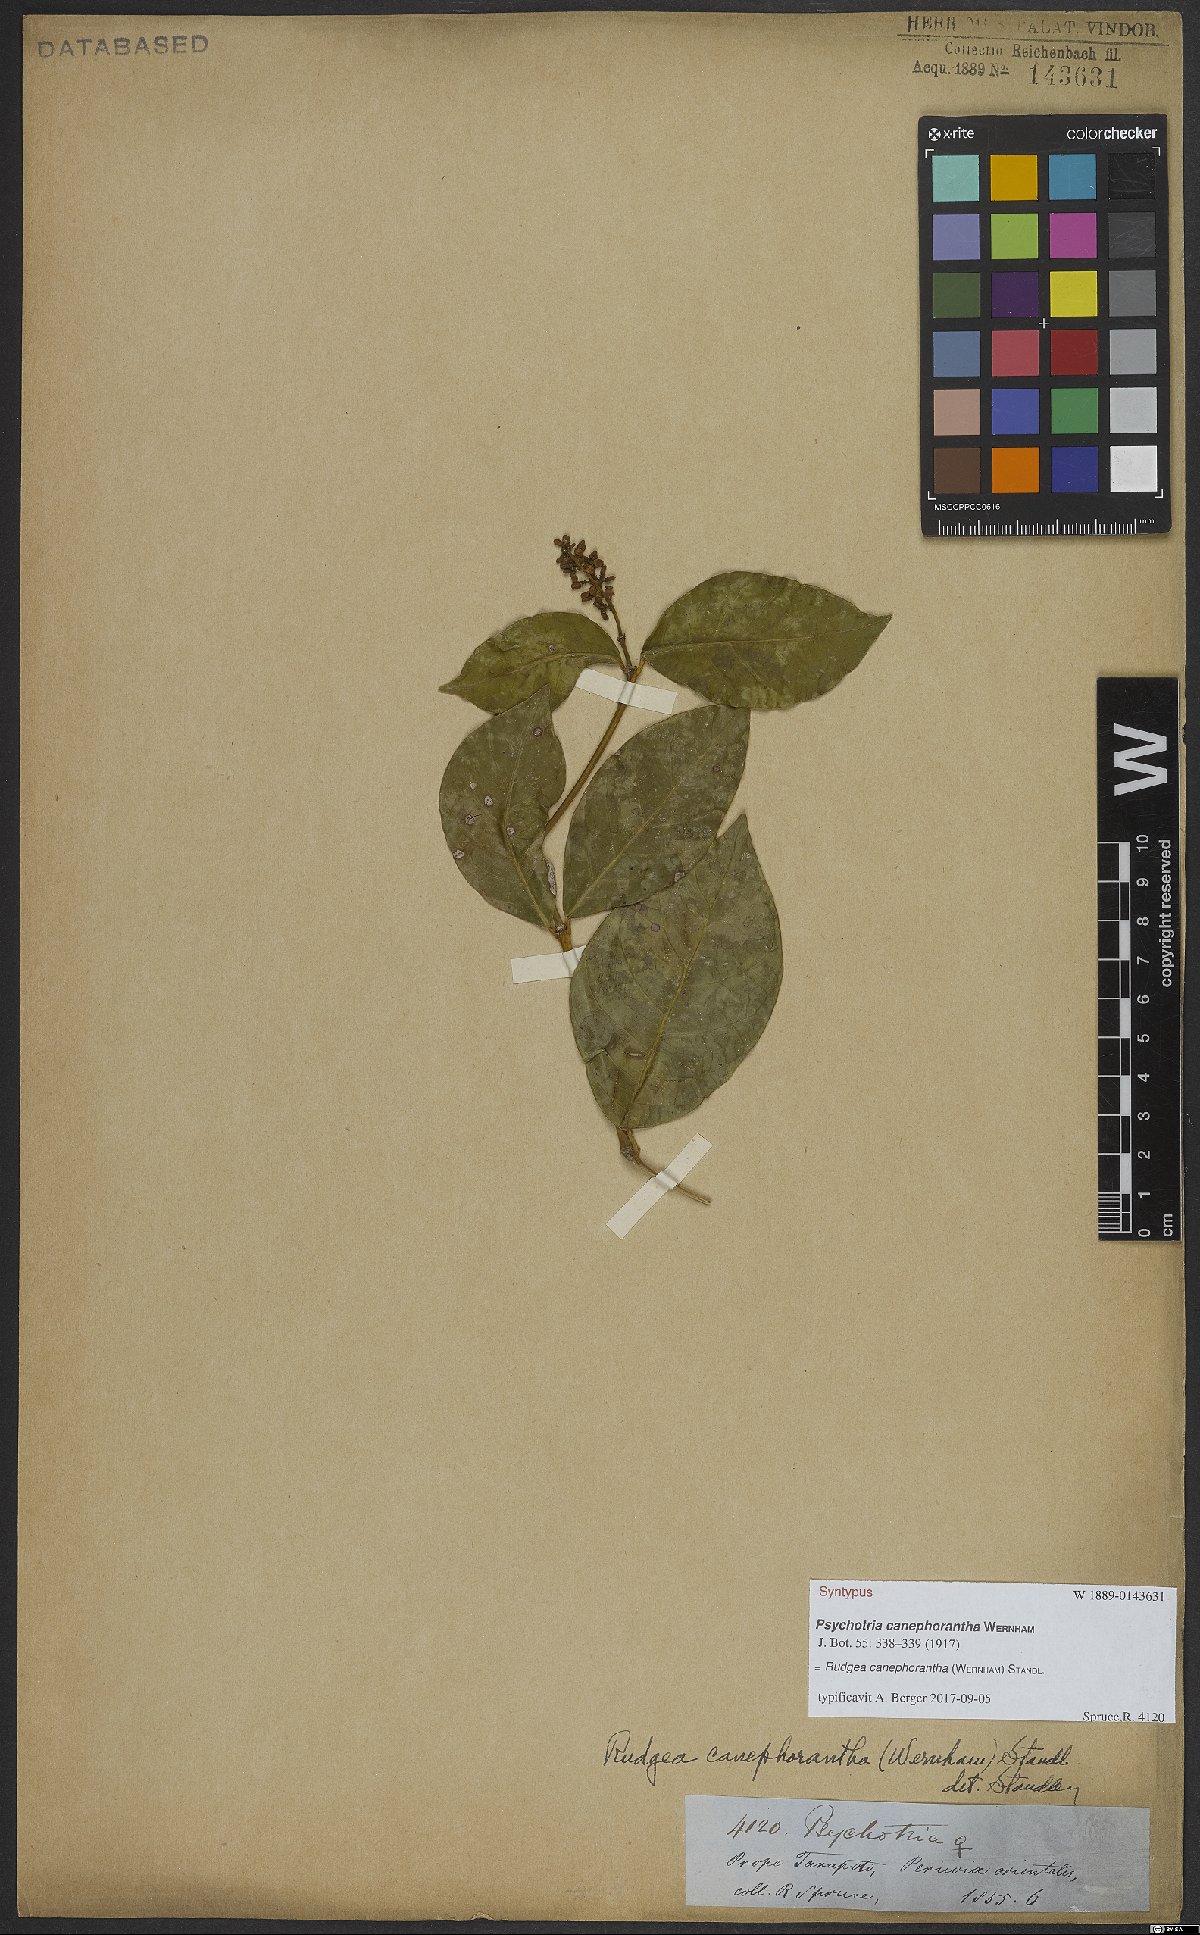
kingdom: Plantae
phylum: Tracheophyta
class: Magnoliopsida
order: Gentianales
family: Rubiaceae
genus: Rudgea
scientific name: Rudgea canephorantha
